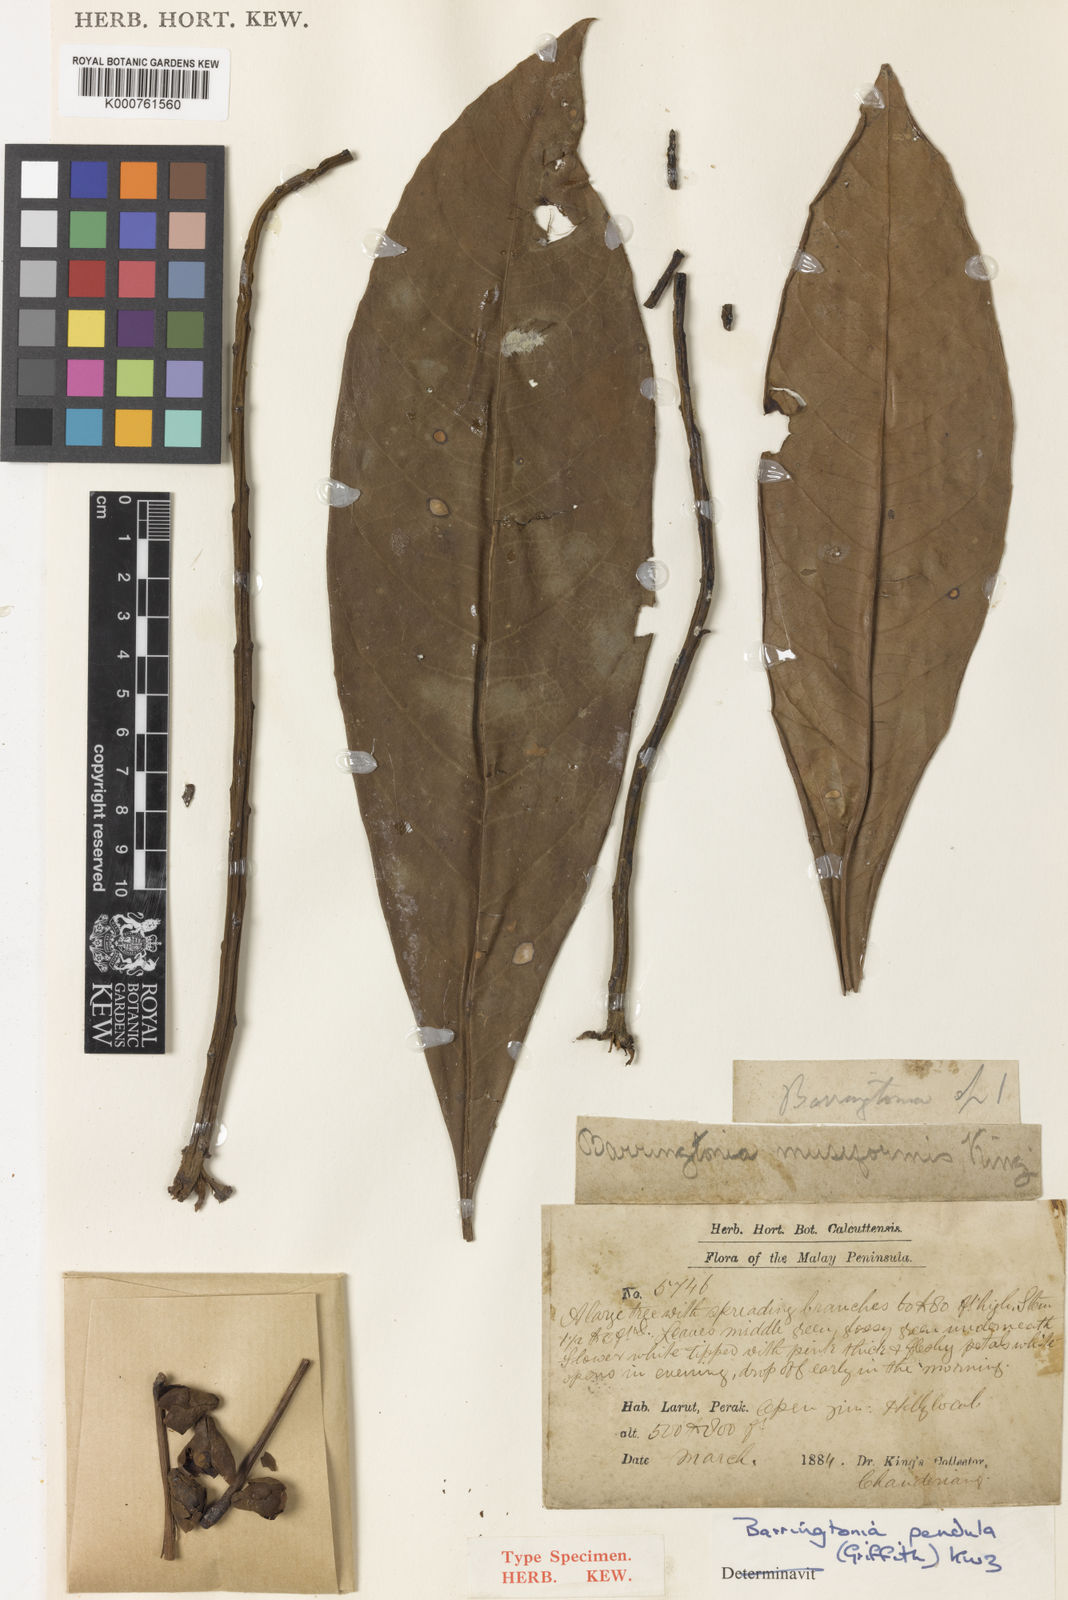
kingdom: Plantae
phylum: Tracheophyta
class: Magnoliopsida
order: Ericales
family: Lecythidaceae
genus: Barringtonia
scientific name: Barringtonia pendula
